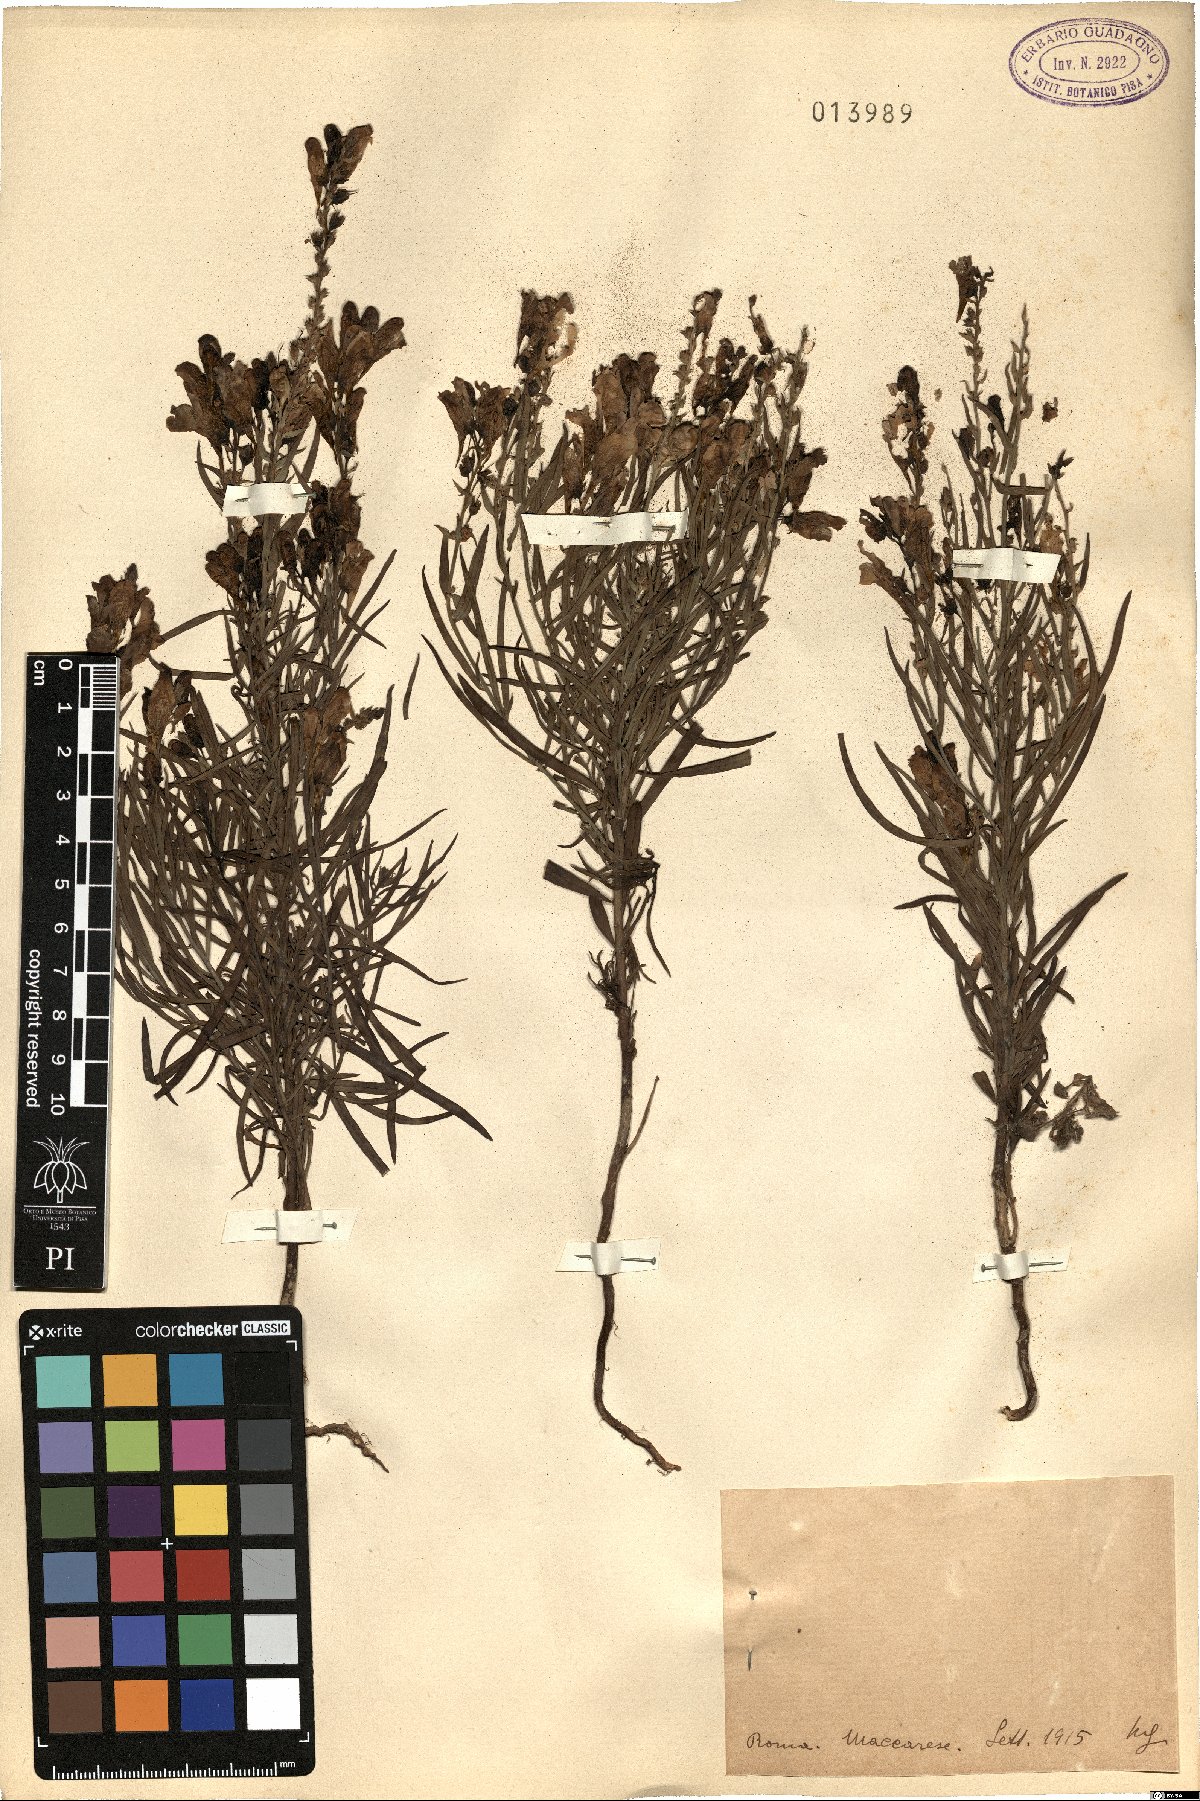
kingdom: Plantae
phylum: Tracheophyta
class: Magnoliopsida
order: Lamiales
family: Plantaginaceae
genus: Linaria
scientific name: Linaria
